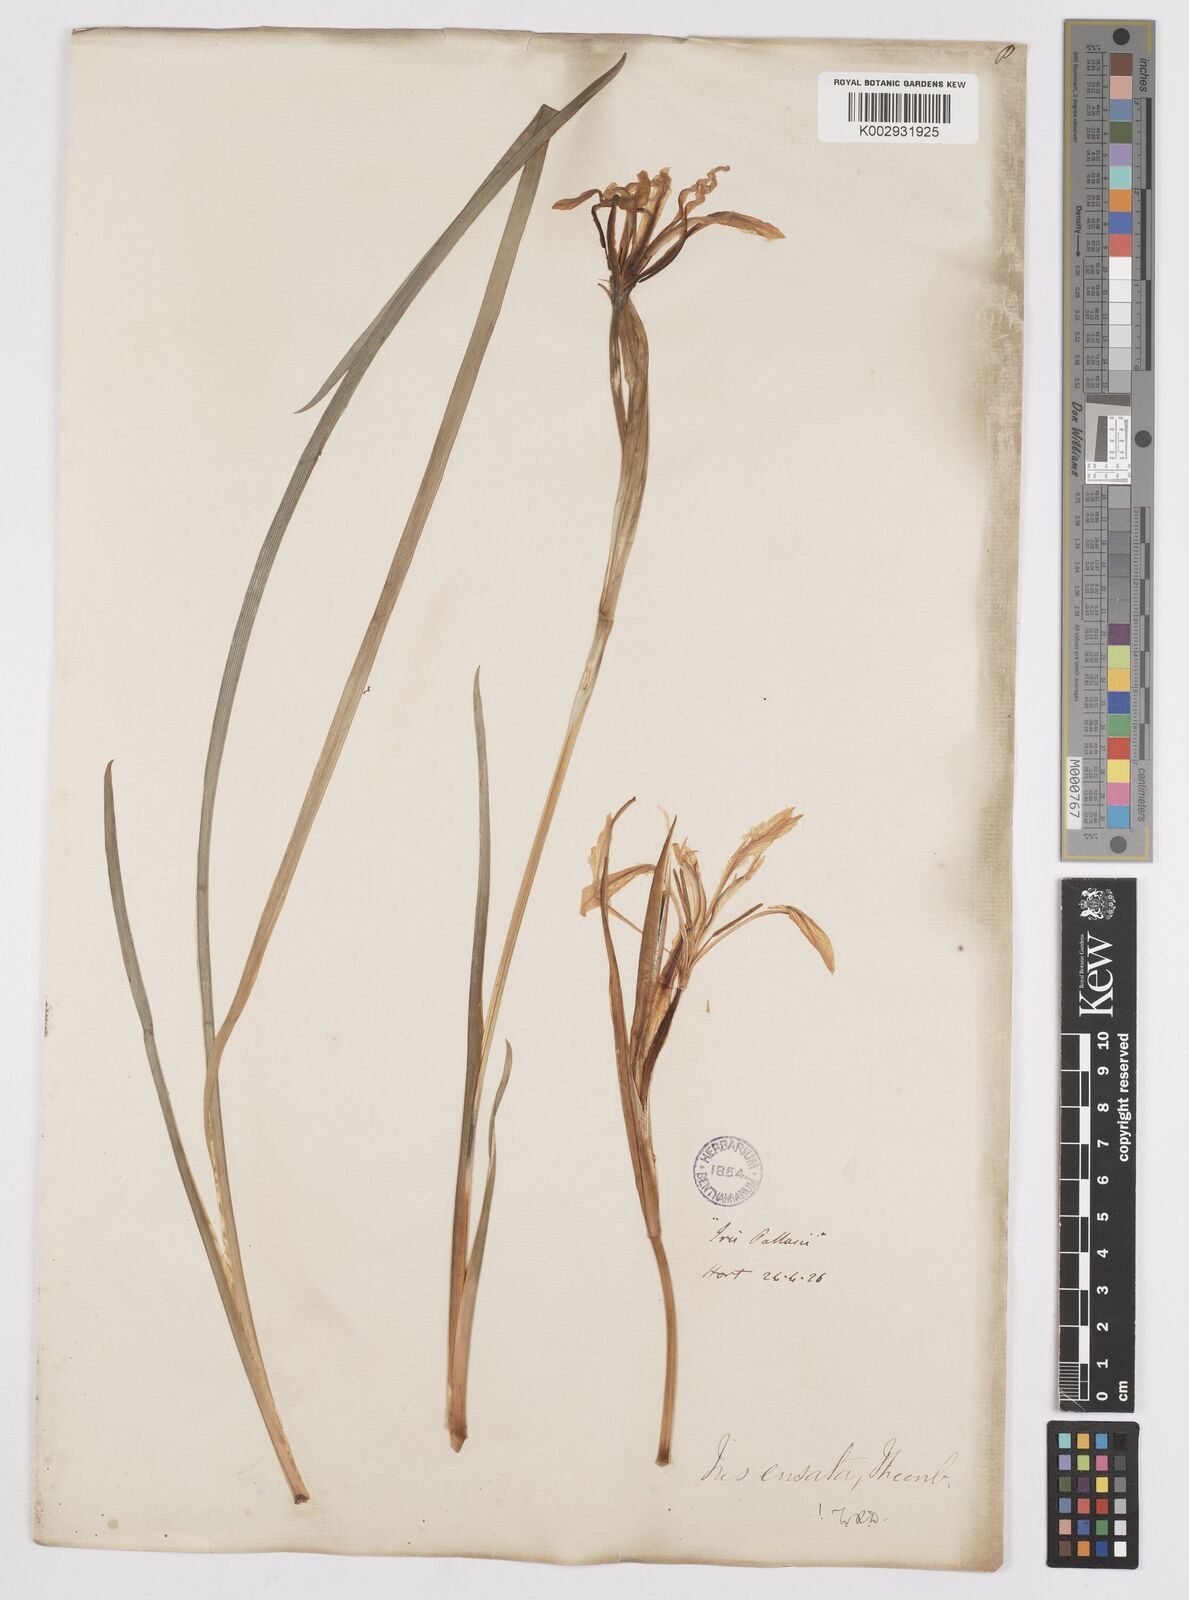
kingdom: Plantae
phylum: Tracheophyta
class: Liliopsida
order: Asparagales
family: Iridaceae
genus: Iris
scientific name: Iris ensata
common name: Beaked iris
